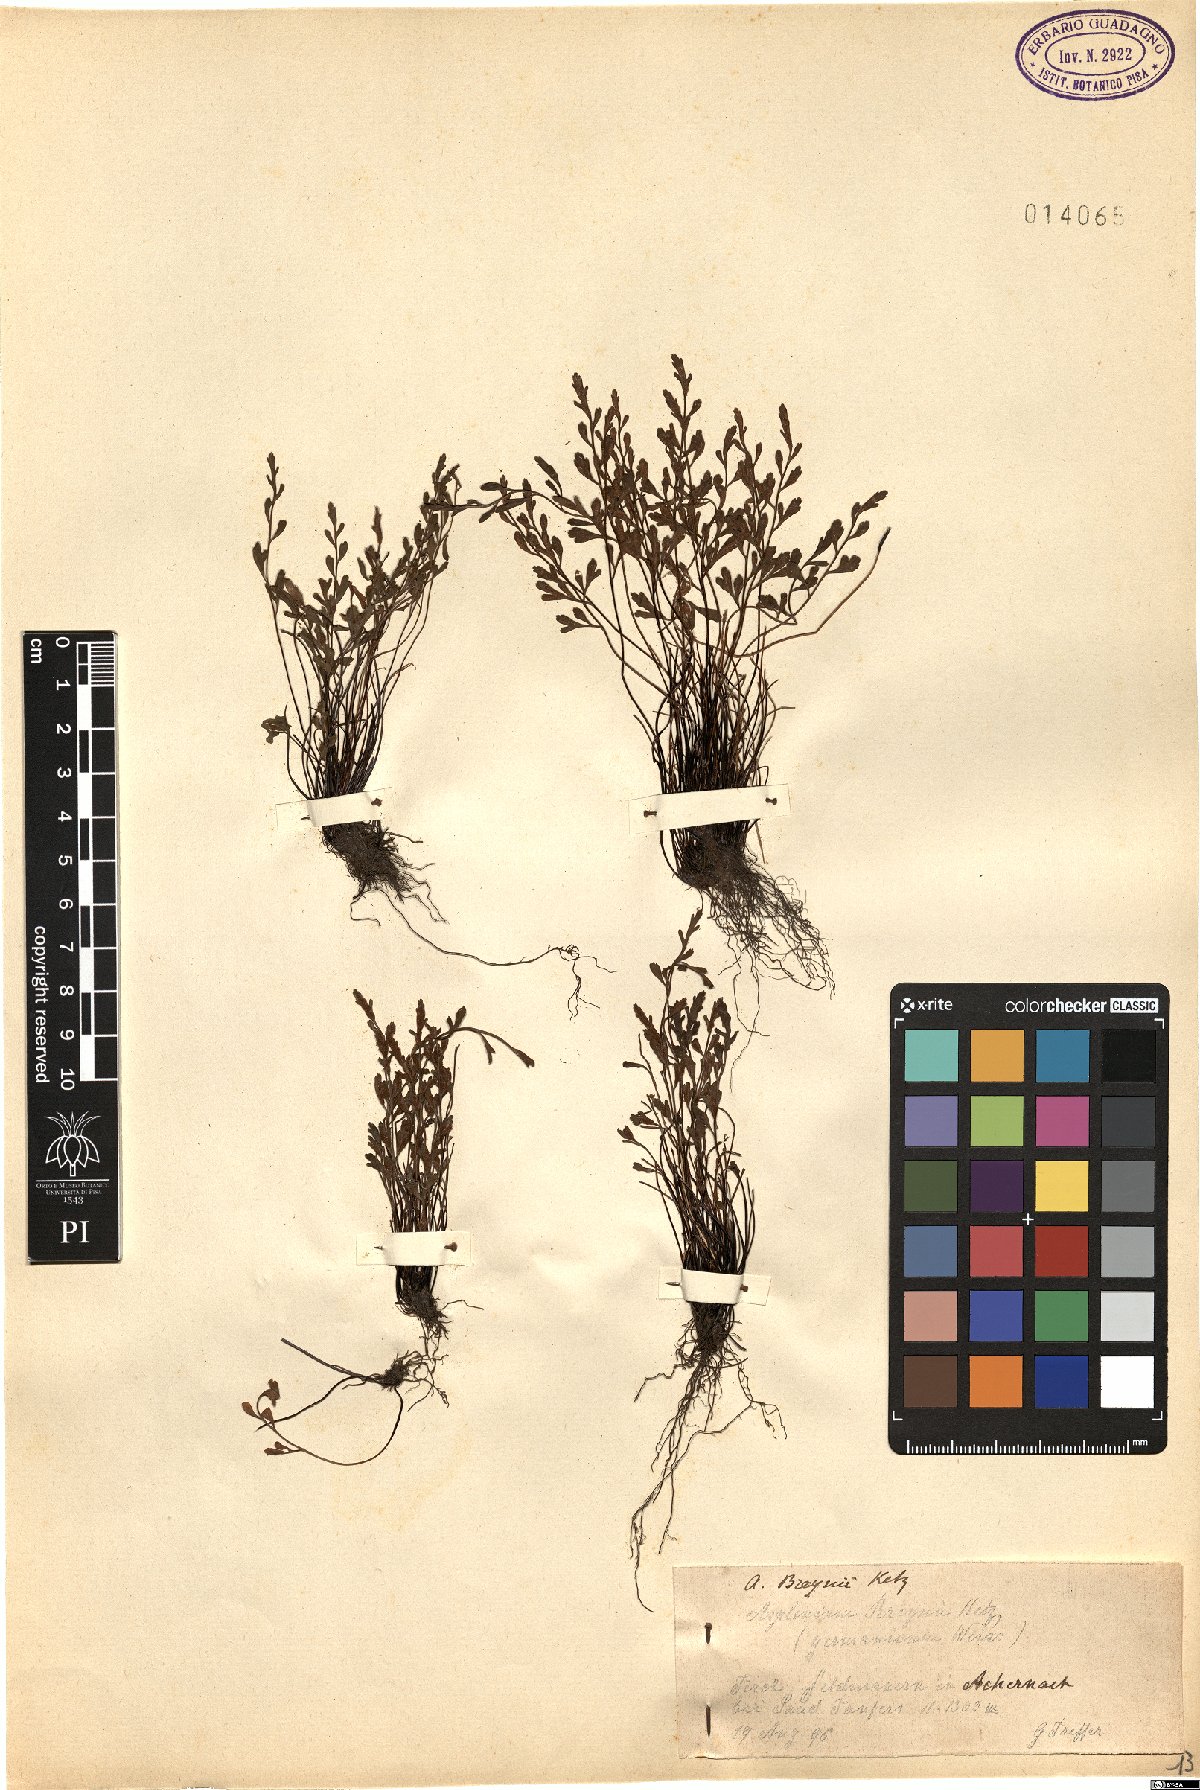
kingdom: Plantae
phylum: Tracheophyta
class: Polypodiopsida
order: Polypodiales
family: Aspleniaceae
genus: Asplenium
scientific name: Asplenium alternifolium
